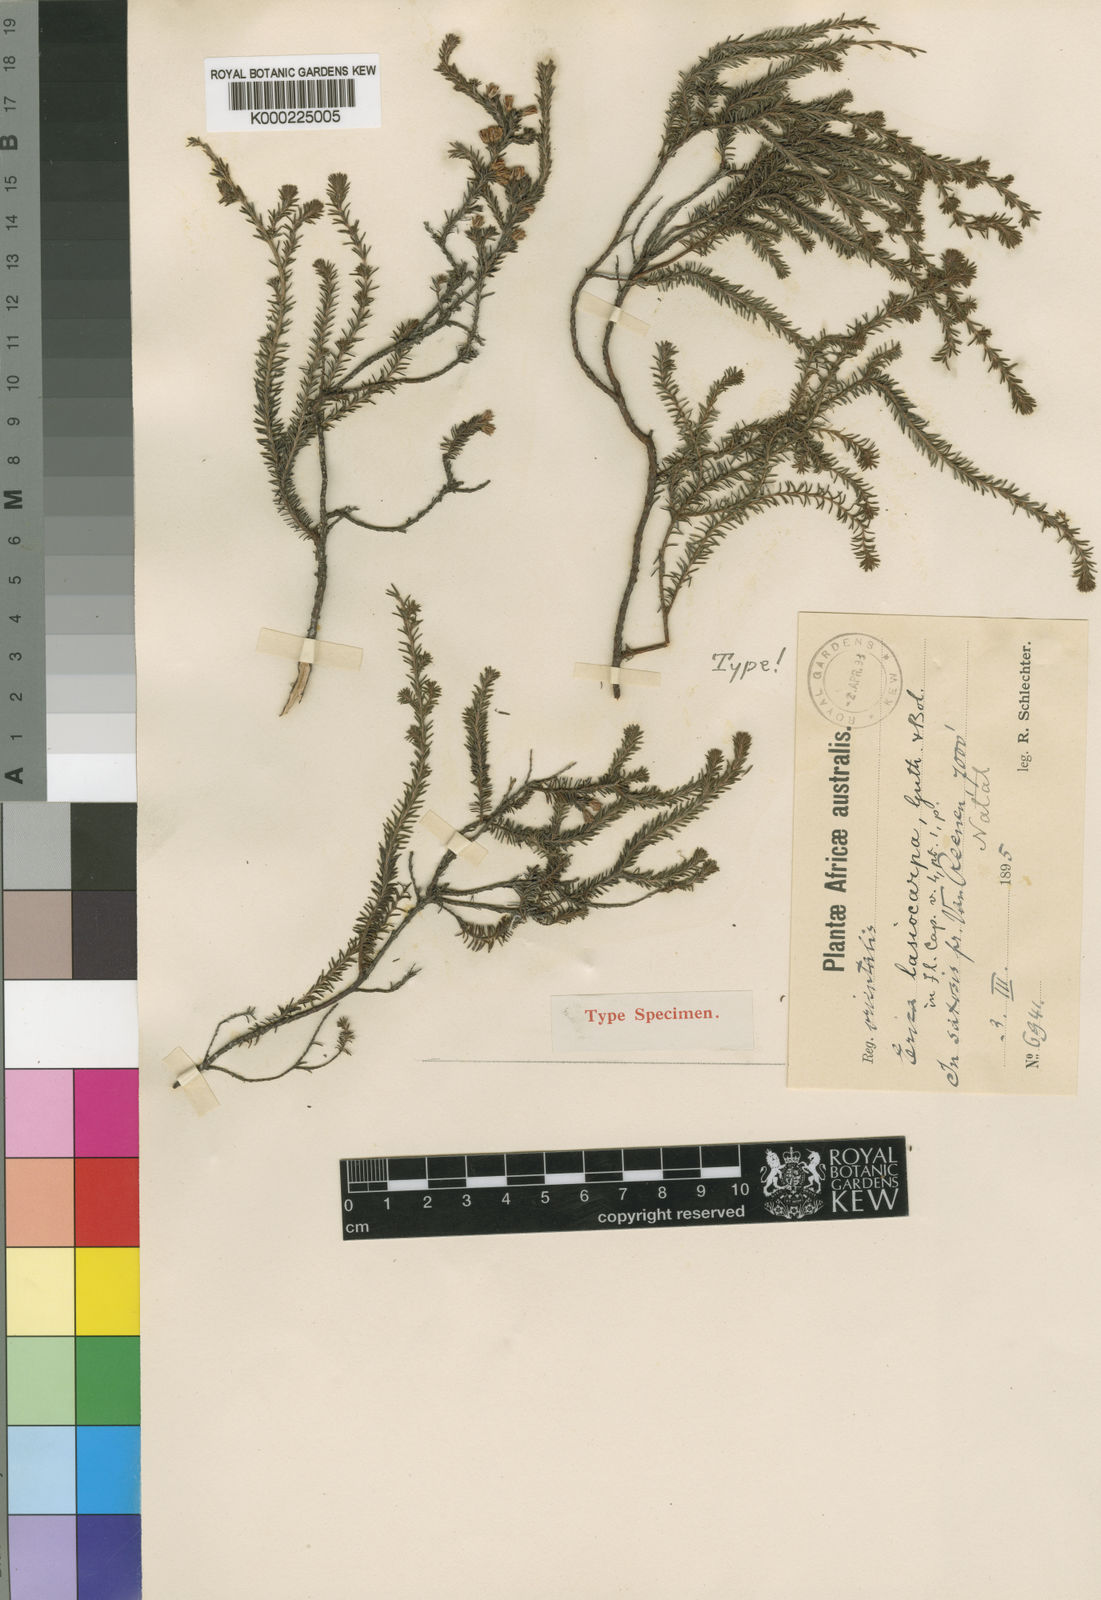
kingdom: Plantae
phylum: Tracheophyta
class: Magnoliopsida
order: Ericales
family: Ericaceae
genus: Erica
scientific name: Erica lasiocarpa
